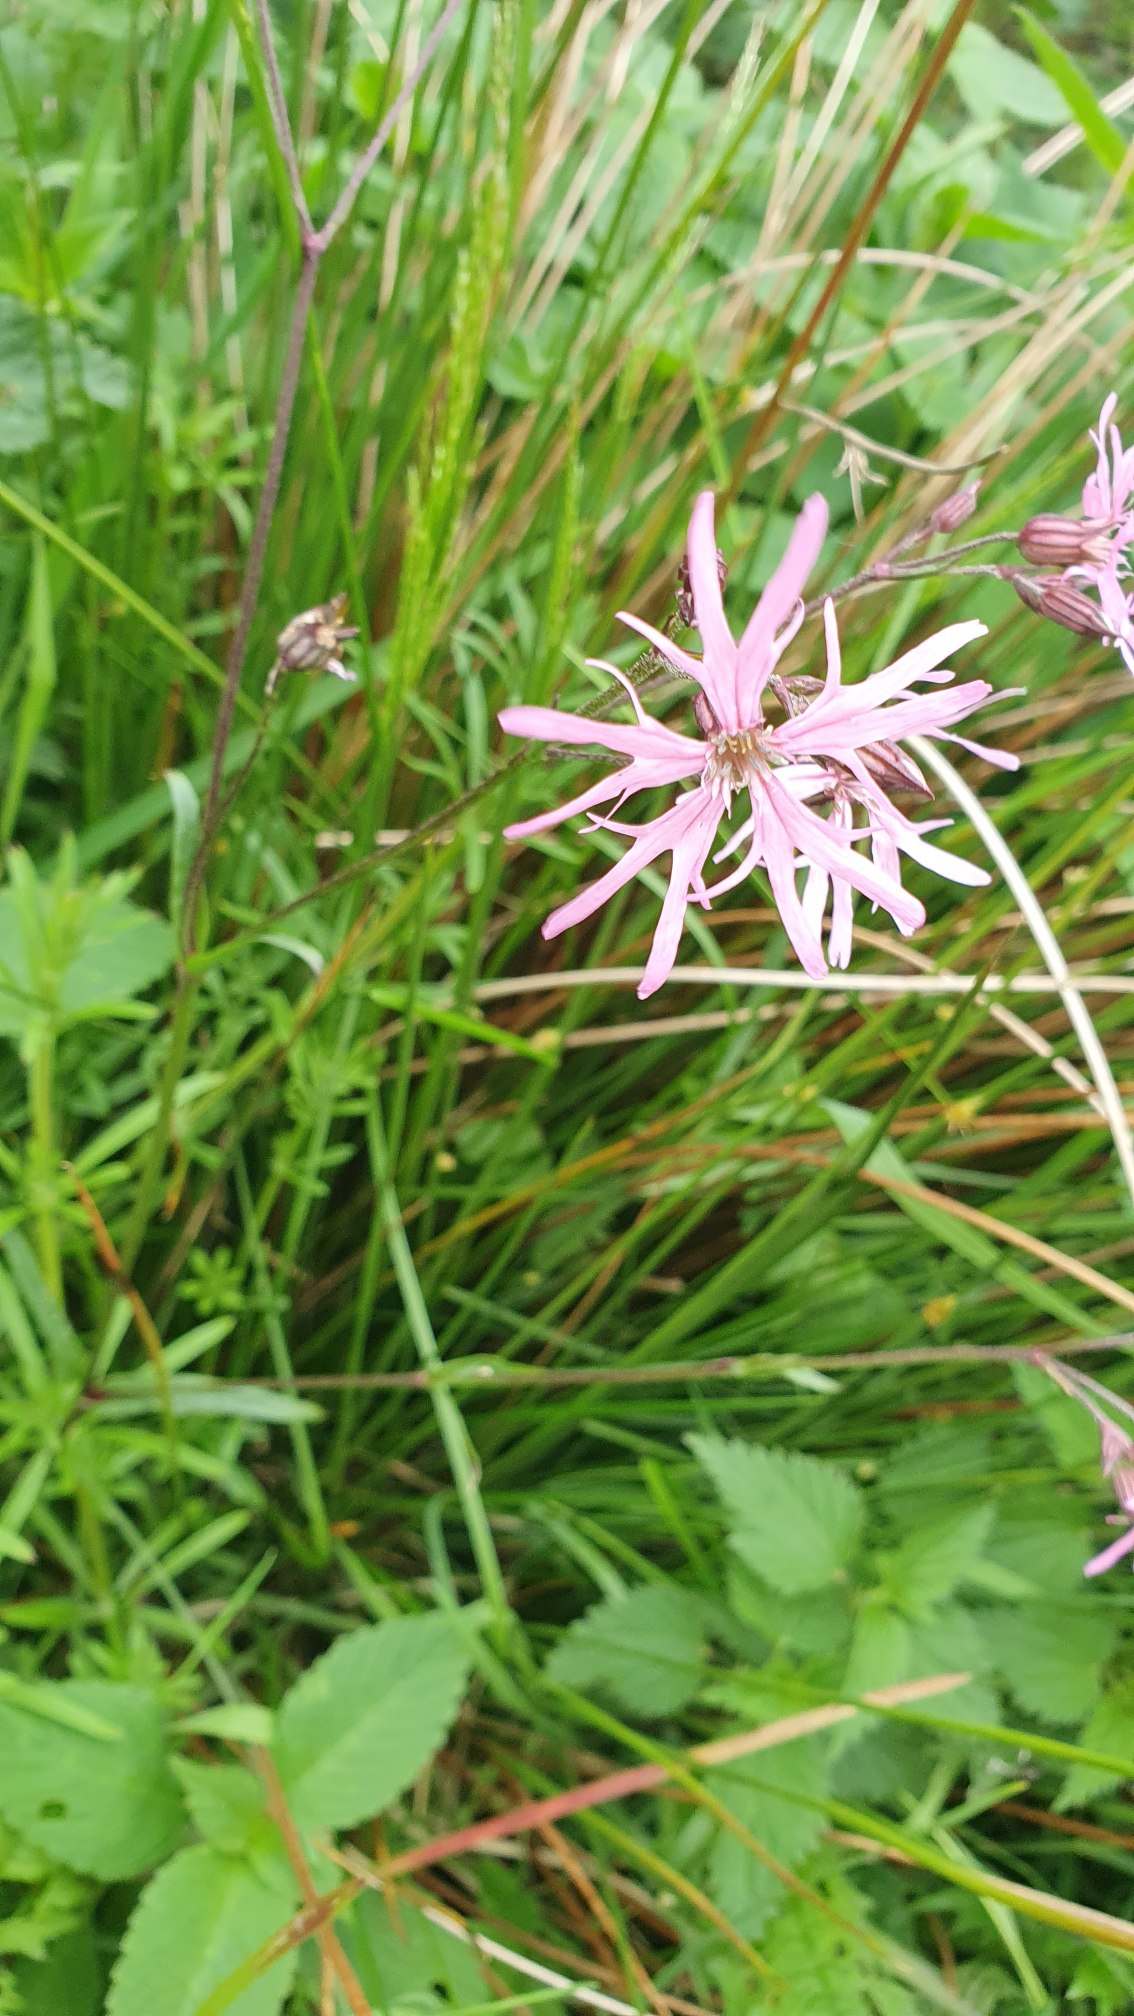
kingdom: Plantae
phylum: Tracheophyta
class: Magnoliopsida
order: Caryophyllales
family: Caryophyllaceae
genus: Silene
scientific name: Silene flos-cuculi
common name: Trævlekrone
